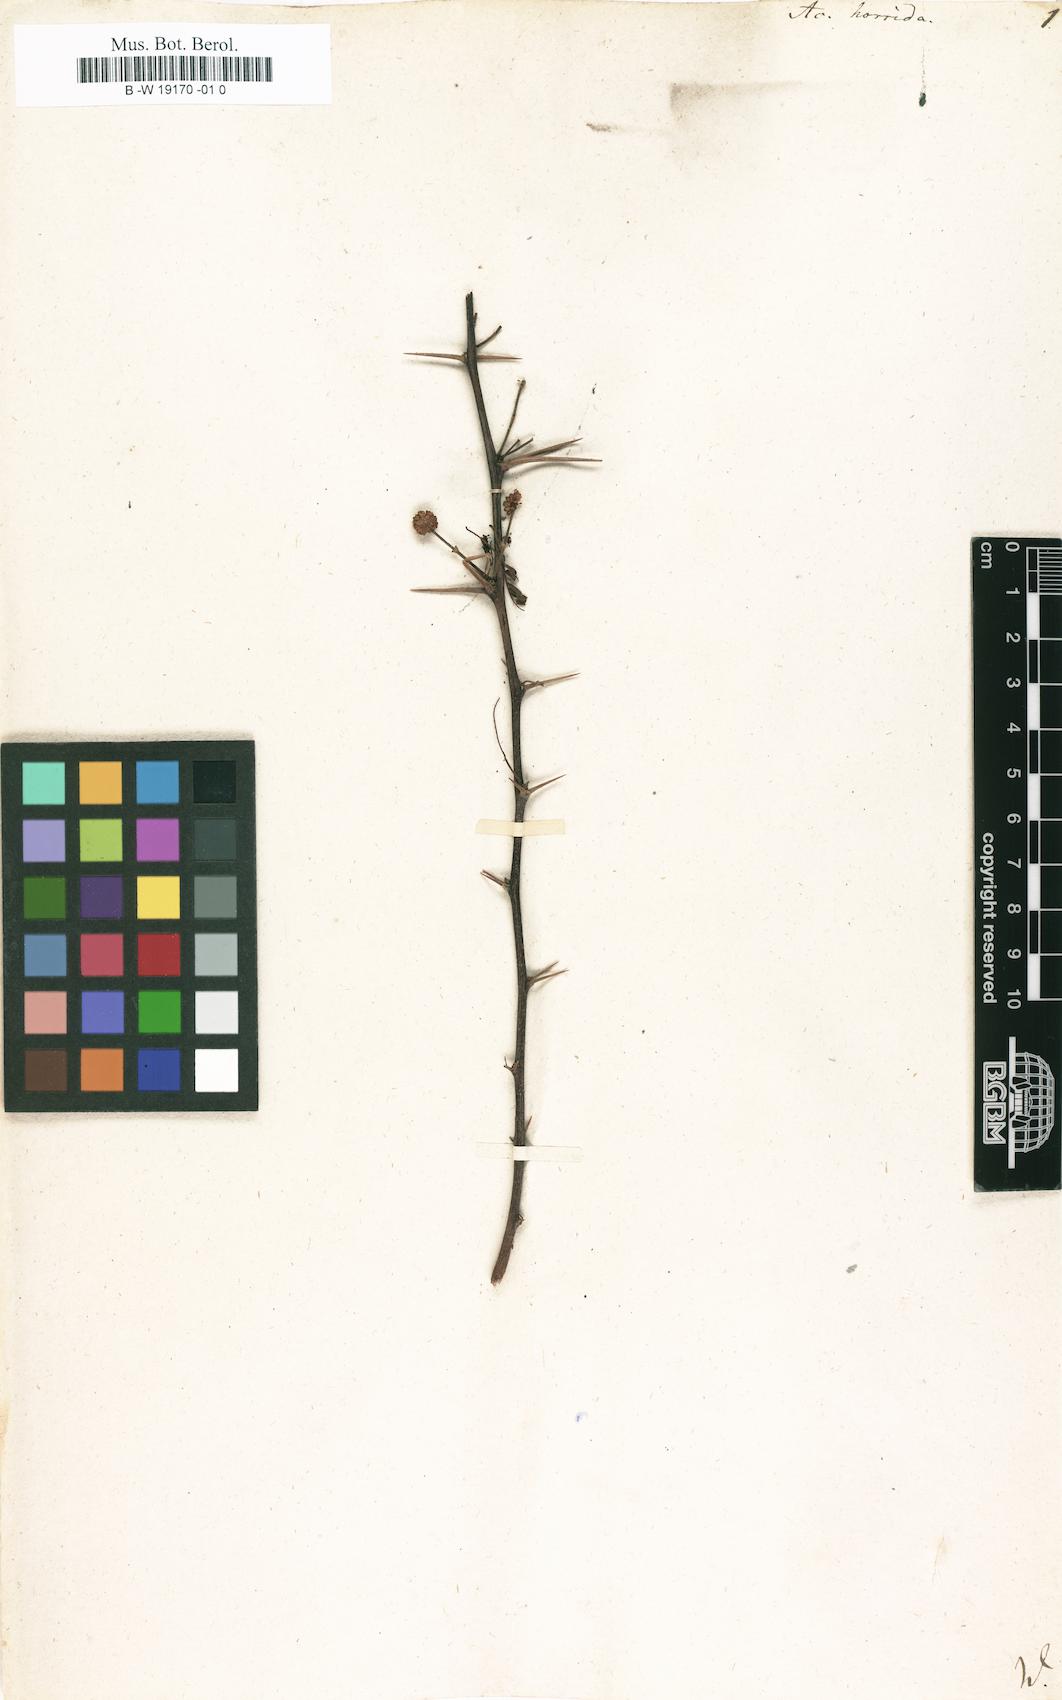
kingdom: Plantae
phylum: Tracheophyta
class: Magnoliopsida
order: Fabales
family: Fabaceae
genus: Vachellia
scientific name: Vachellia
